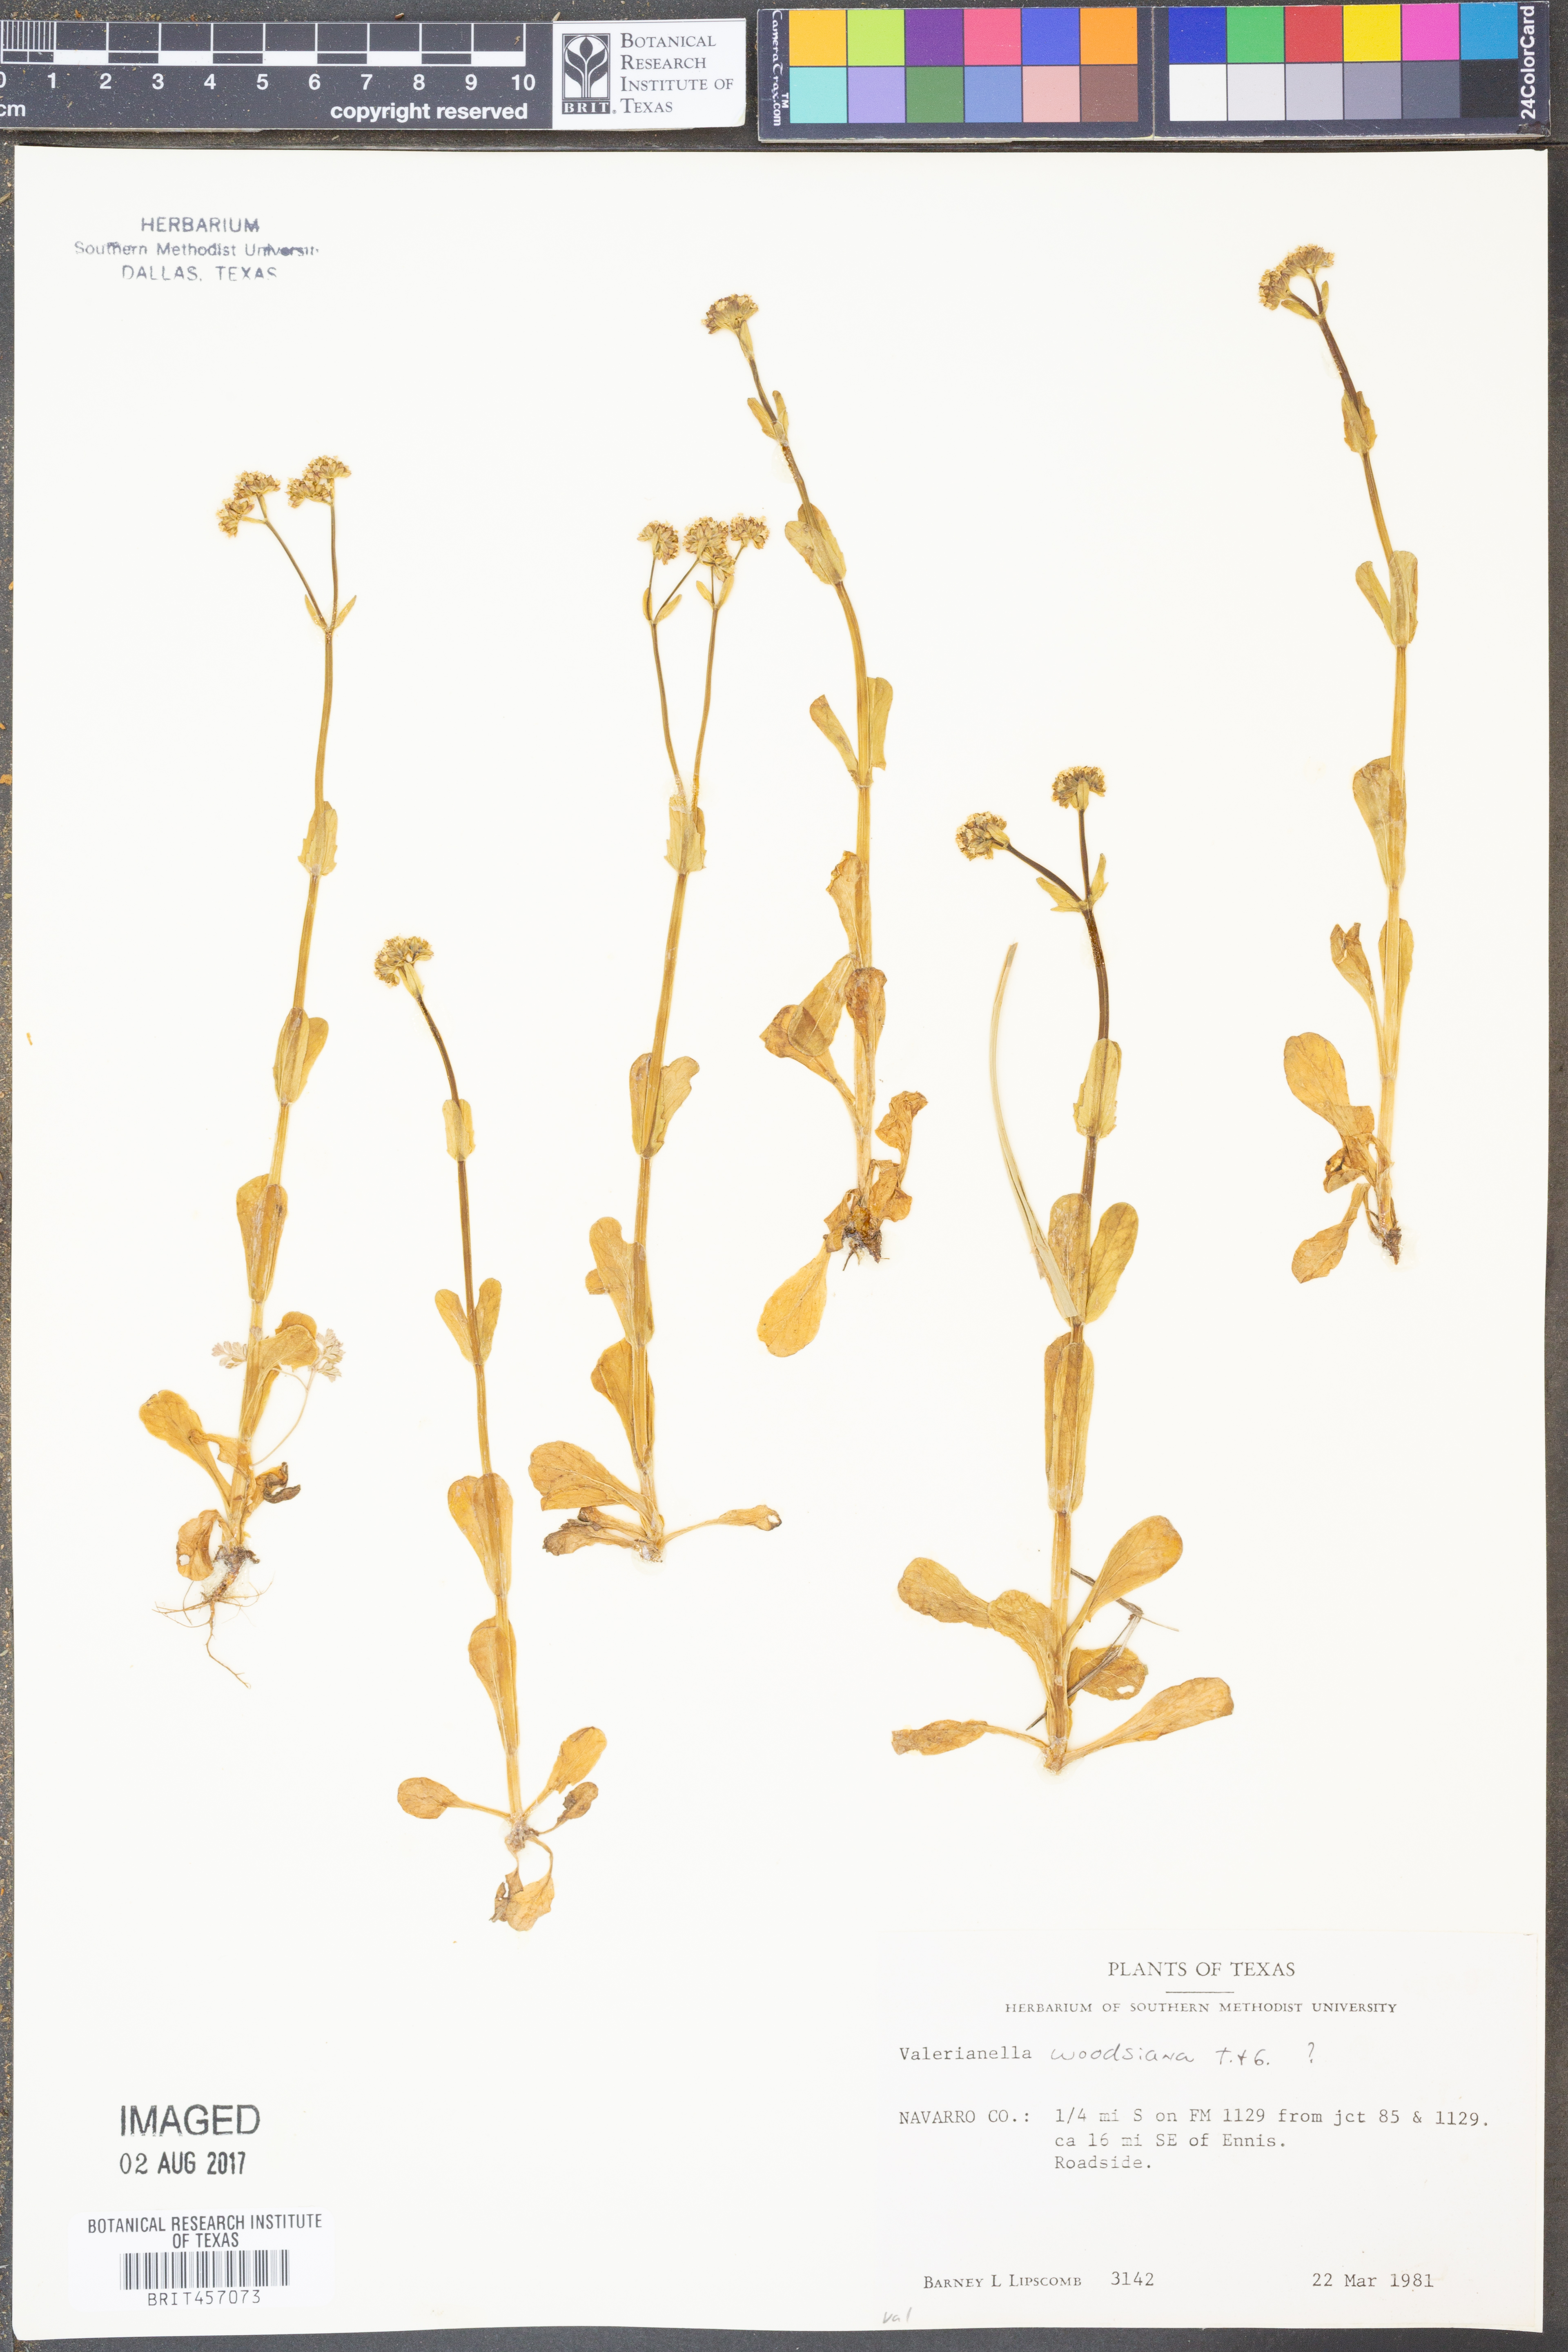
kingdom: Plantae
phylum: Tracheophyta
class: Magnoliopsida
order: Dipsacales
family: Caprifoliaceae
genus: Valerianella
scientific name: Valerianella radiata
